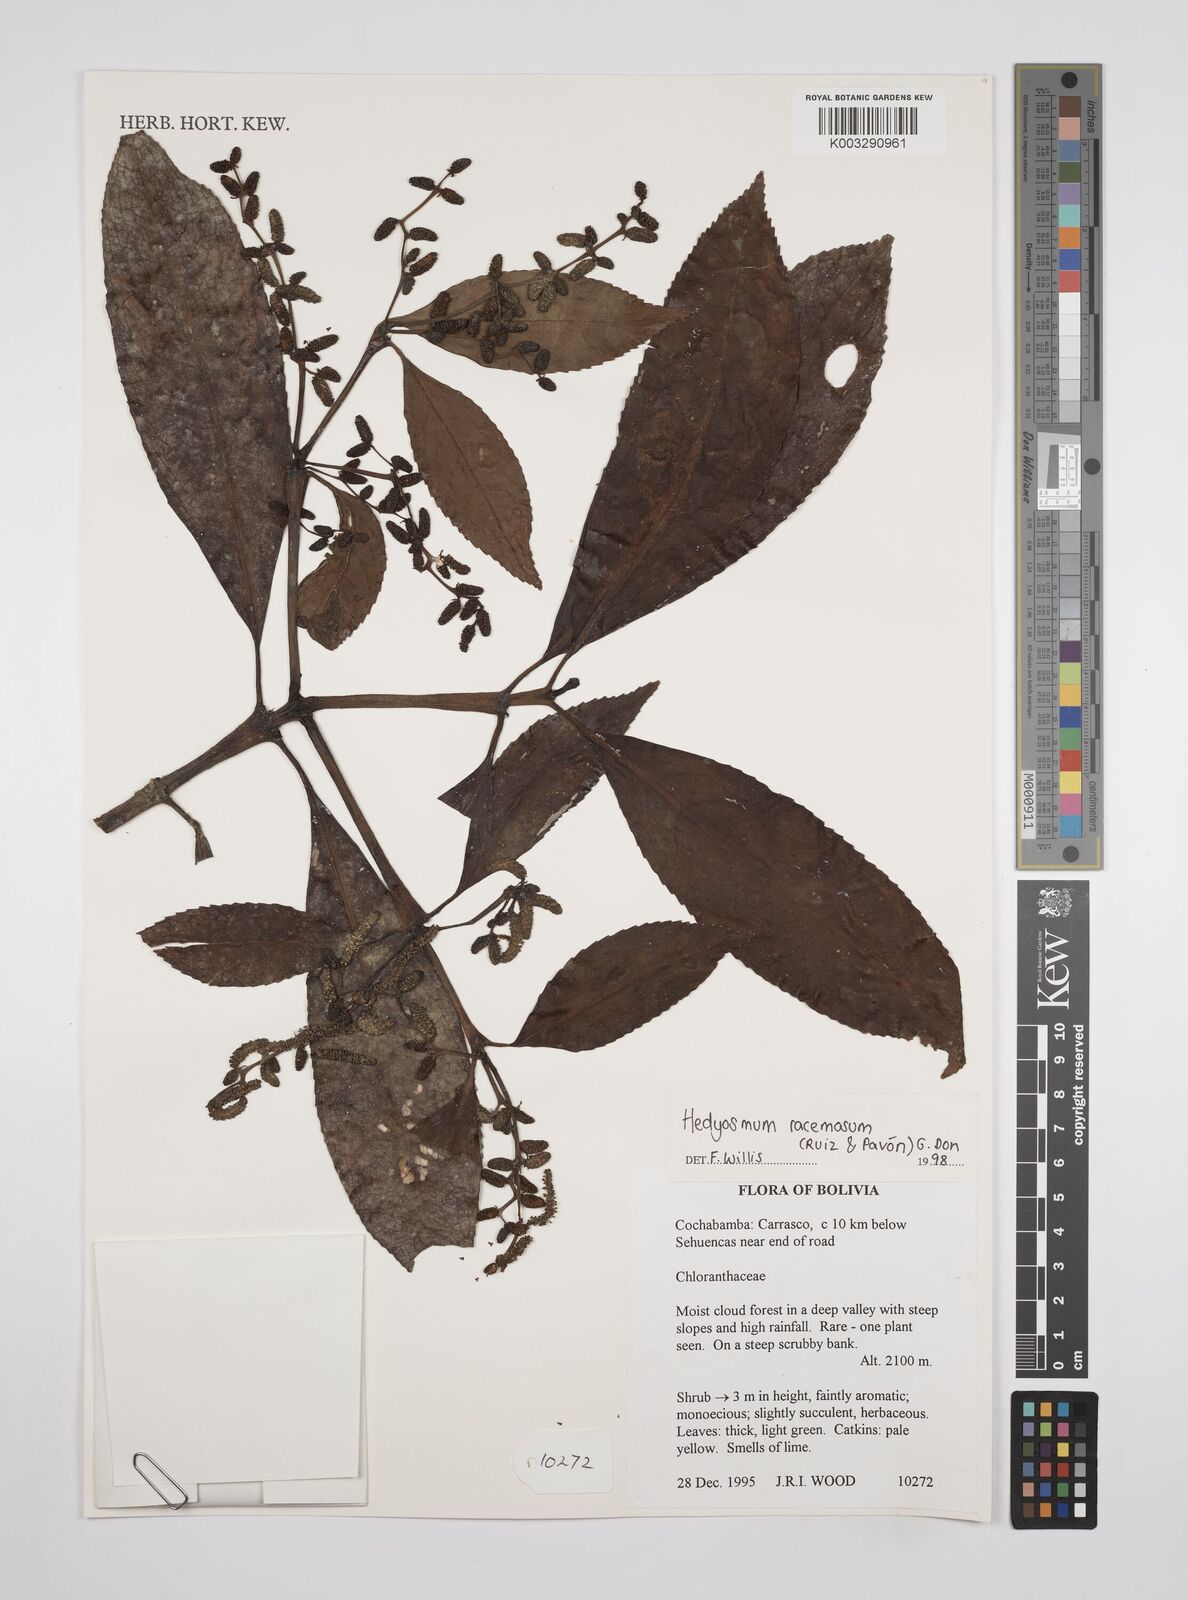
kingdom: Plantae
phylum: Tracheophyta
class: Magnoliopsida
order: Chloranthales
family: Chloranthaceae
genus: Hedyosmum
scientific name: Hedyosmum racemosum
